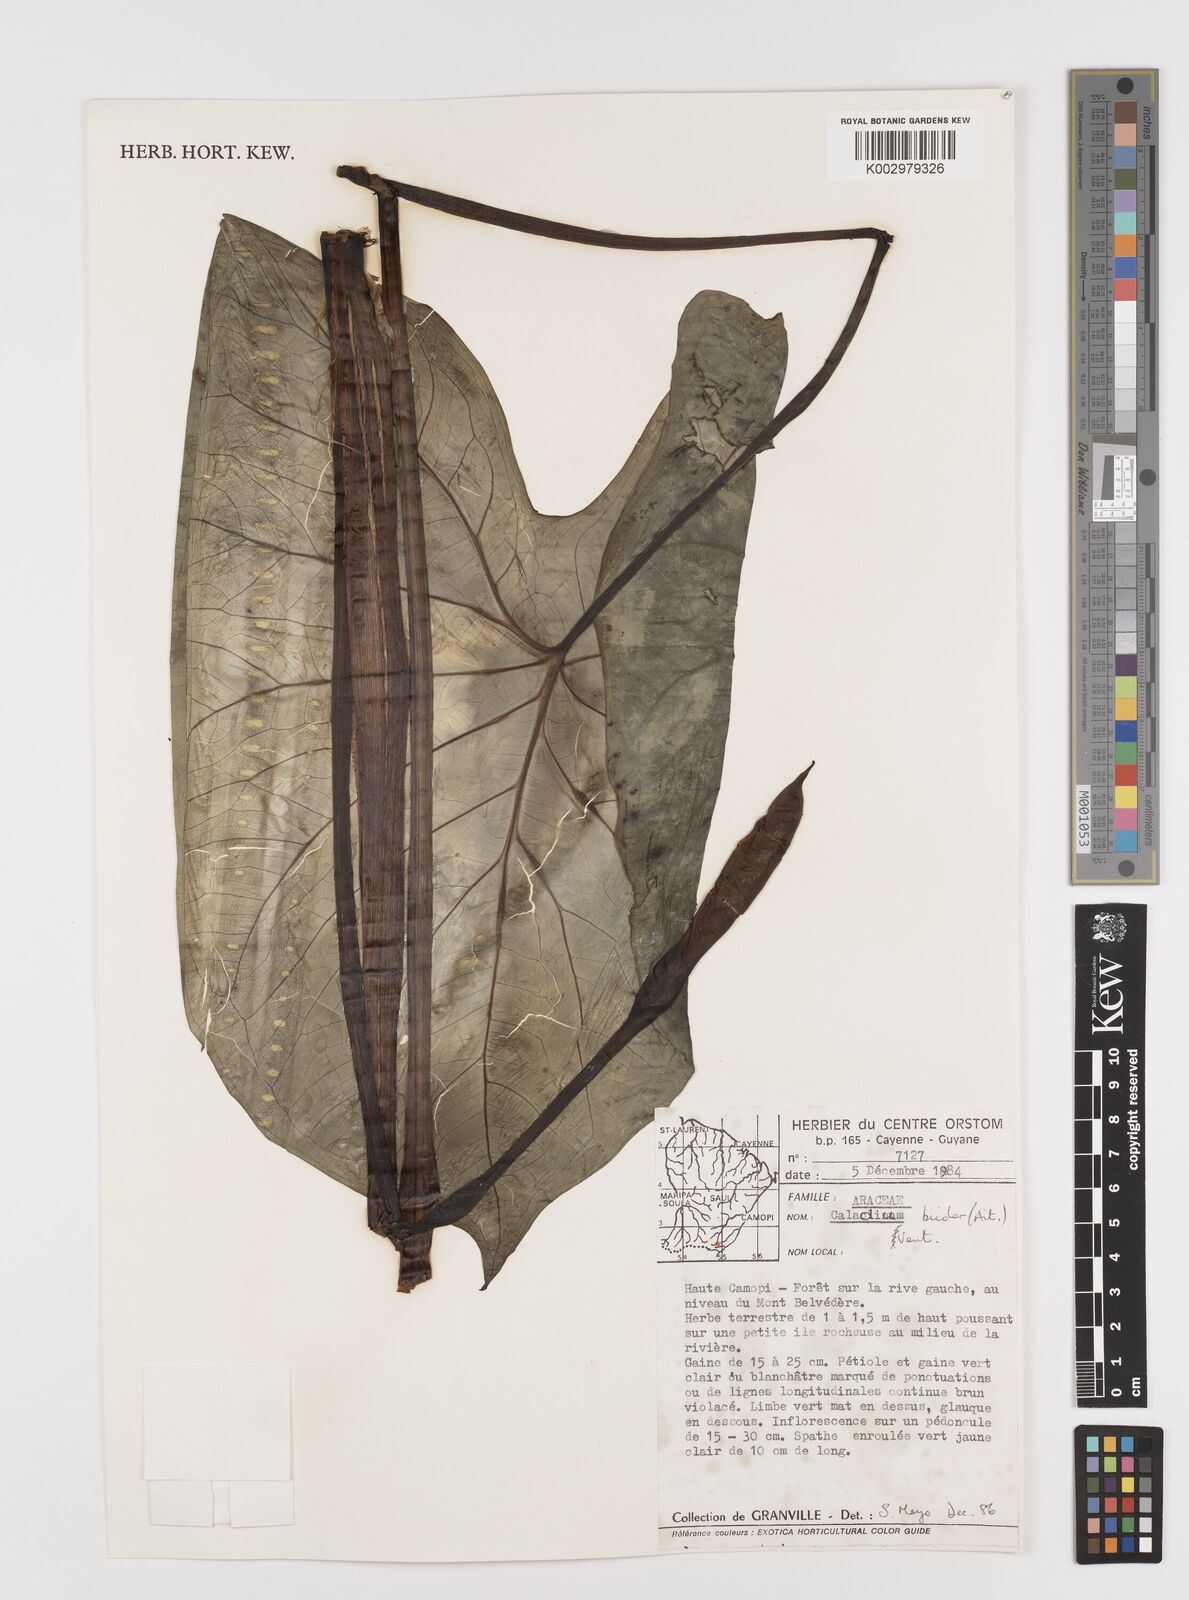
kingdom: Plantae
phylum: Tracheophyta
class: Liliopsida
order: Alismatales
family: Araceae
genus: Caladium
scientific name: Caladium bicolor
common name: Artist's pallet
